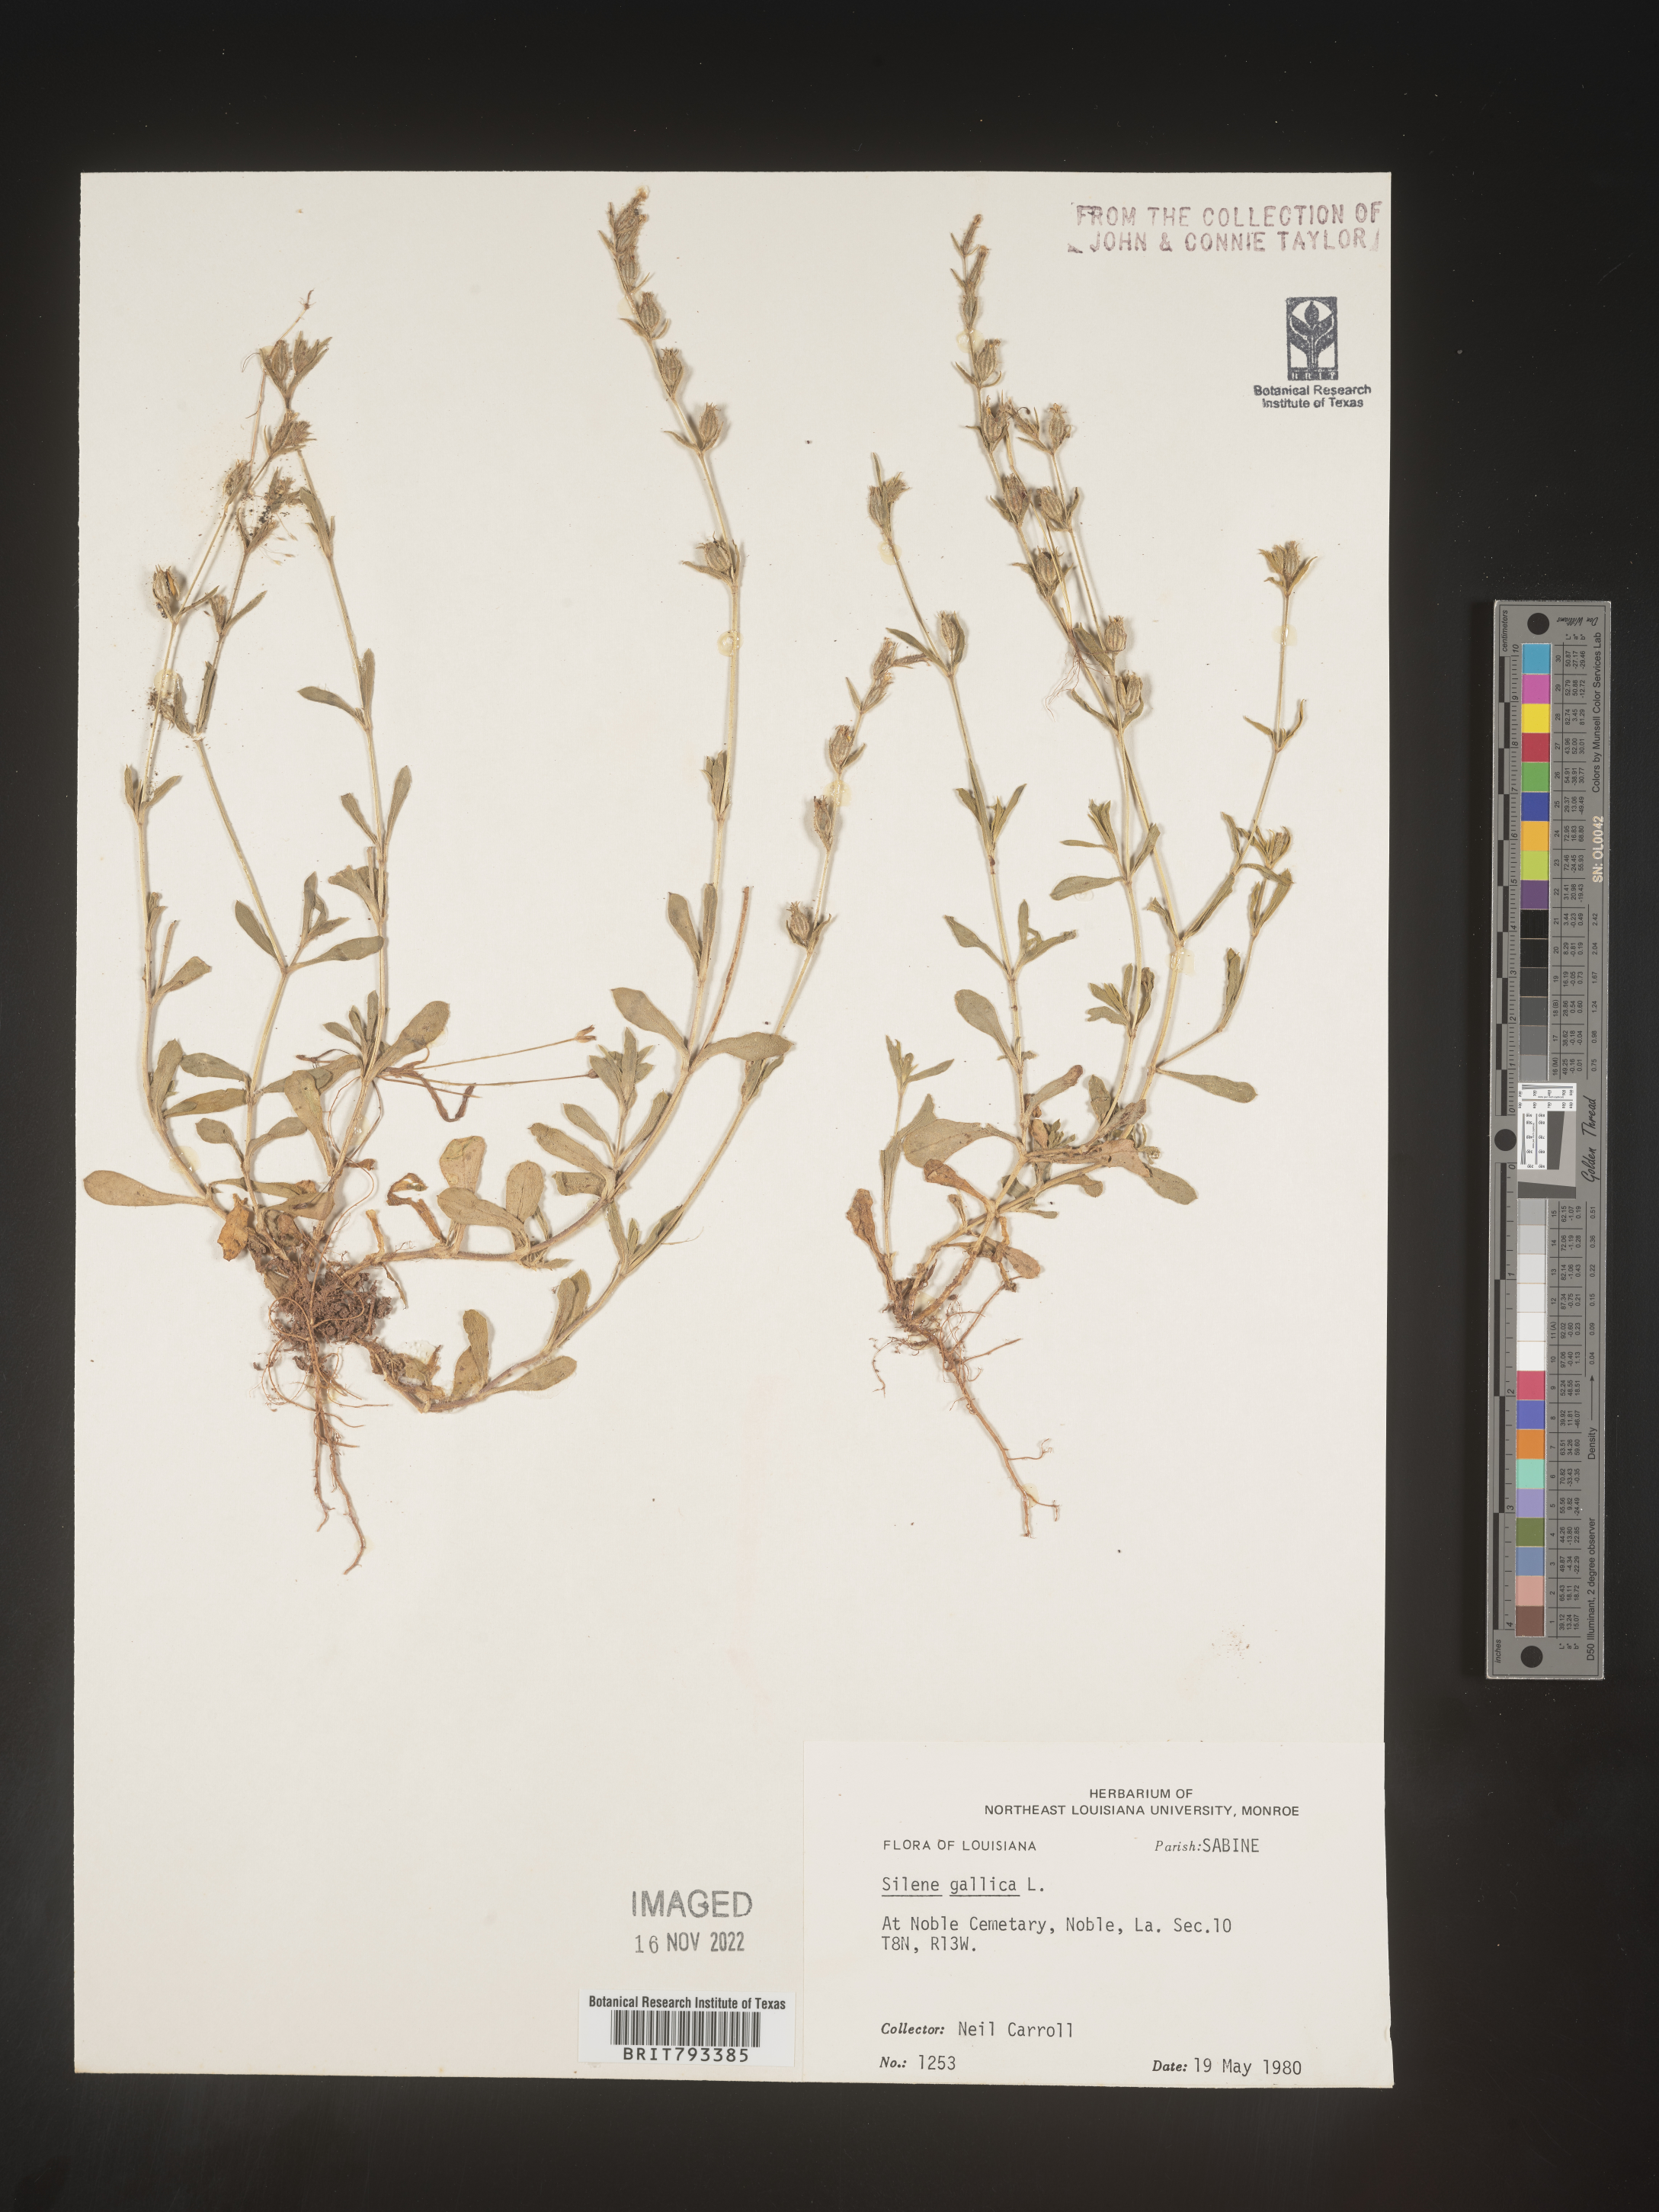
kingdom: Plantae
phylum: Tracheophyta
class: Magnoliopsida
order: Caryophyllales
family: Caryophyllaceae
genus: Silene
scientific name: Silene gallica
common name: Small-flowered catchfly
